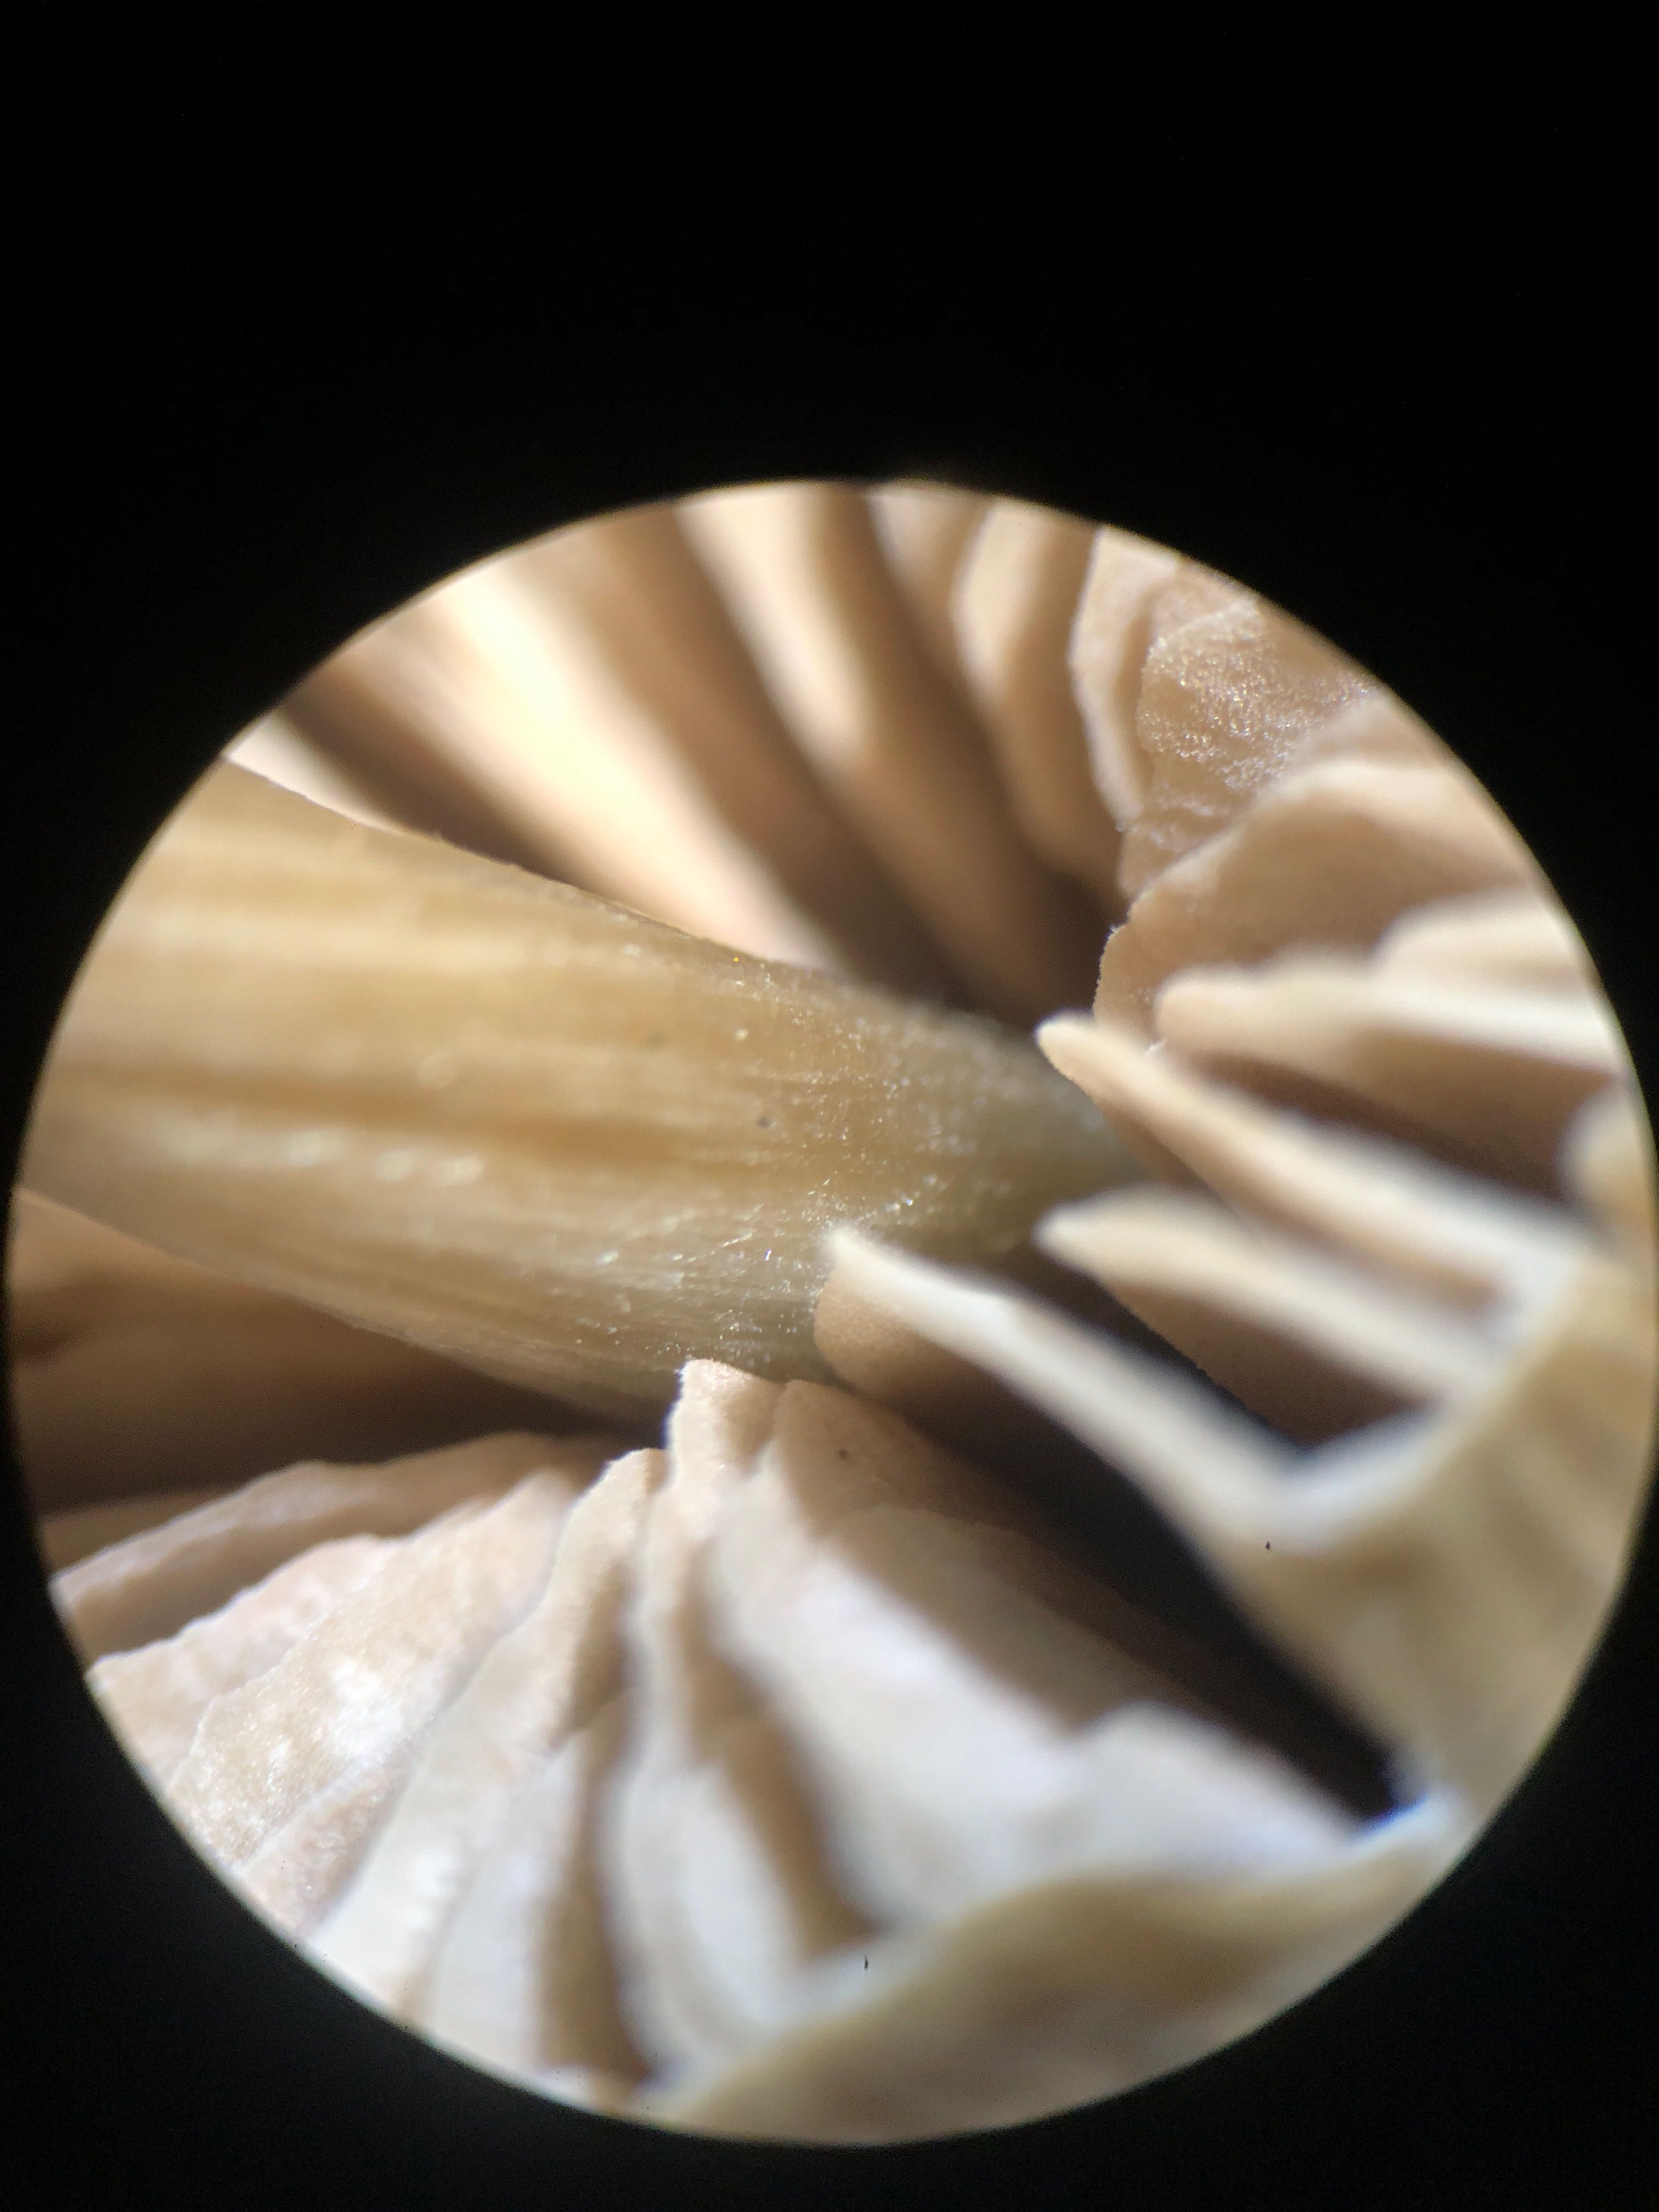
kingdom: Fungi
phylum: Basidiomycota
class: Agaricomycetes
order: Agaricales
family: Entolomataceae
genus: Entoloma
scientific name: Entoloma
